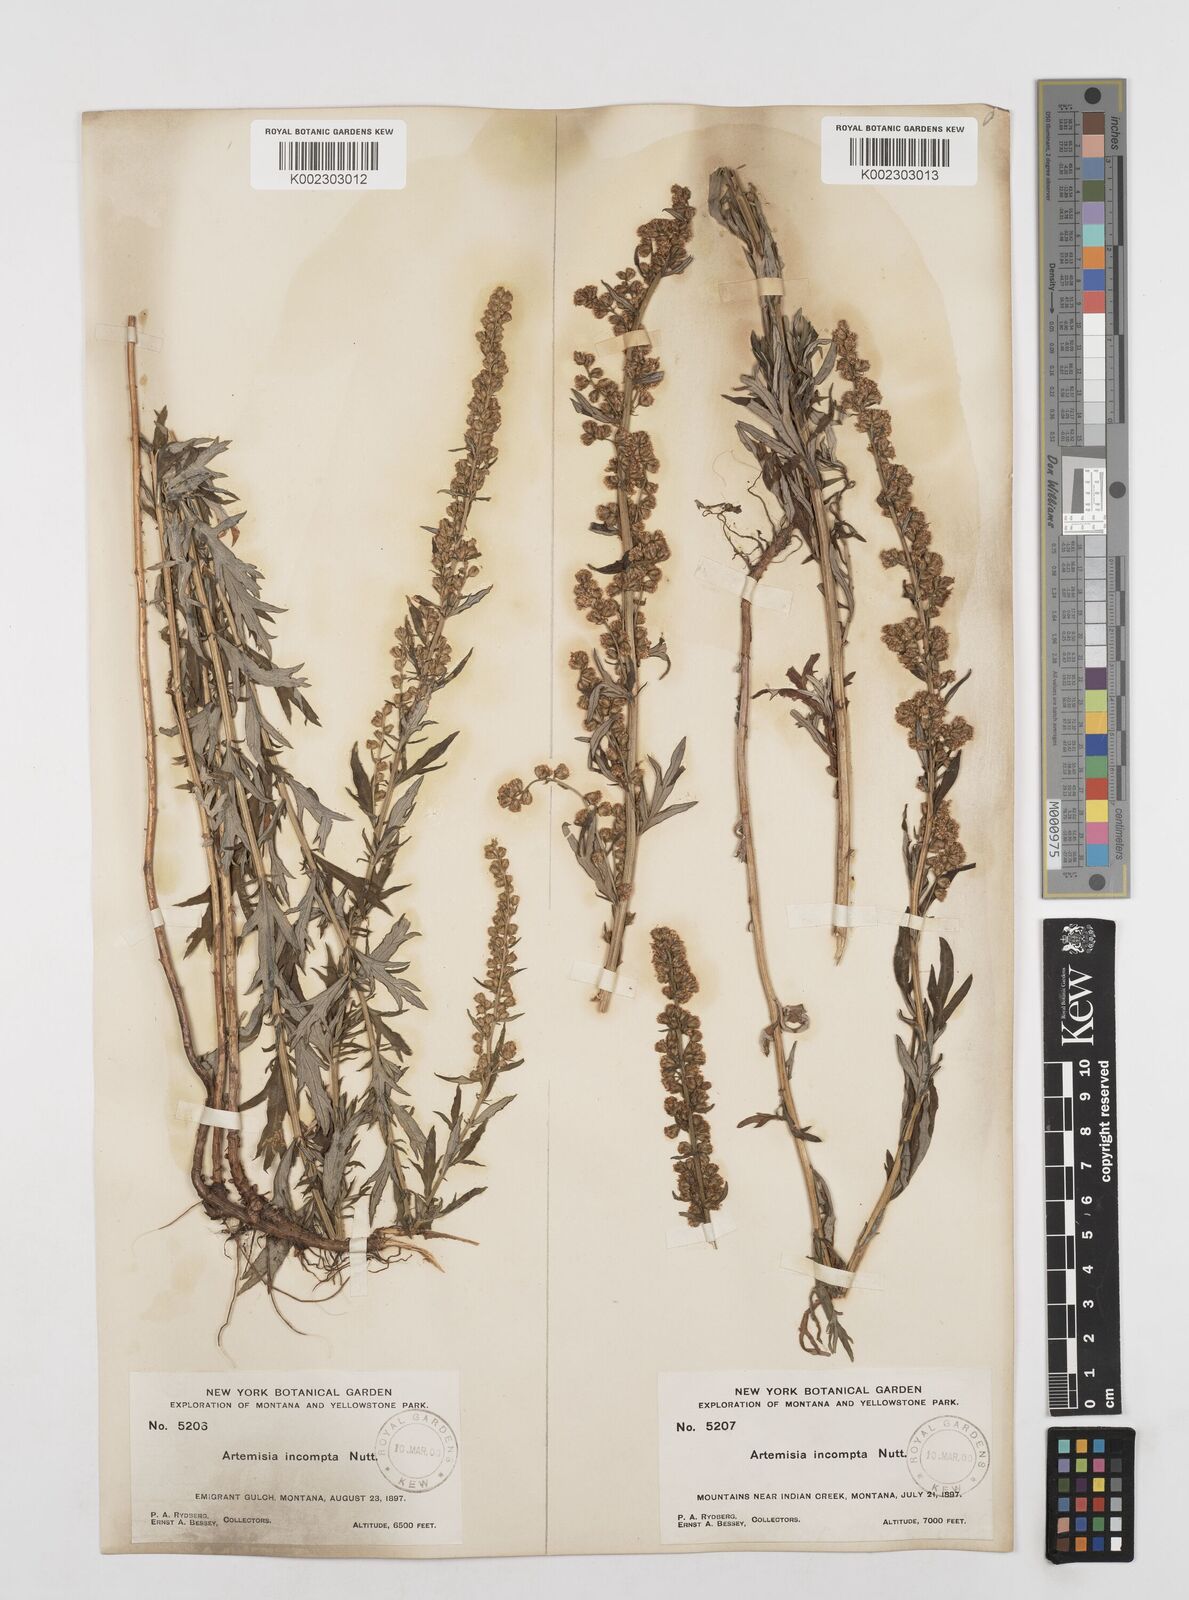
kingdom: Plantae
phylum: Tracheophyta
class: Magnoliopsida
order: Asterales
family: Asteraceae
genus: Artemisia
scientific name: Artemisia michauxiana
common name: Lemon sagewort
